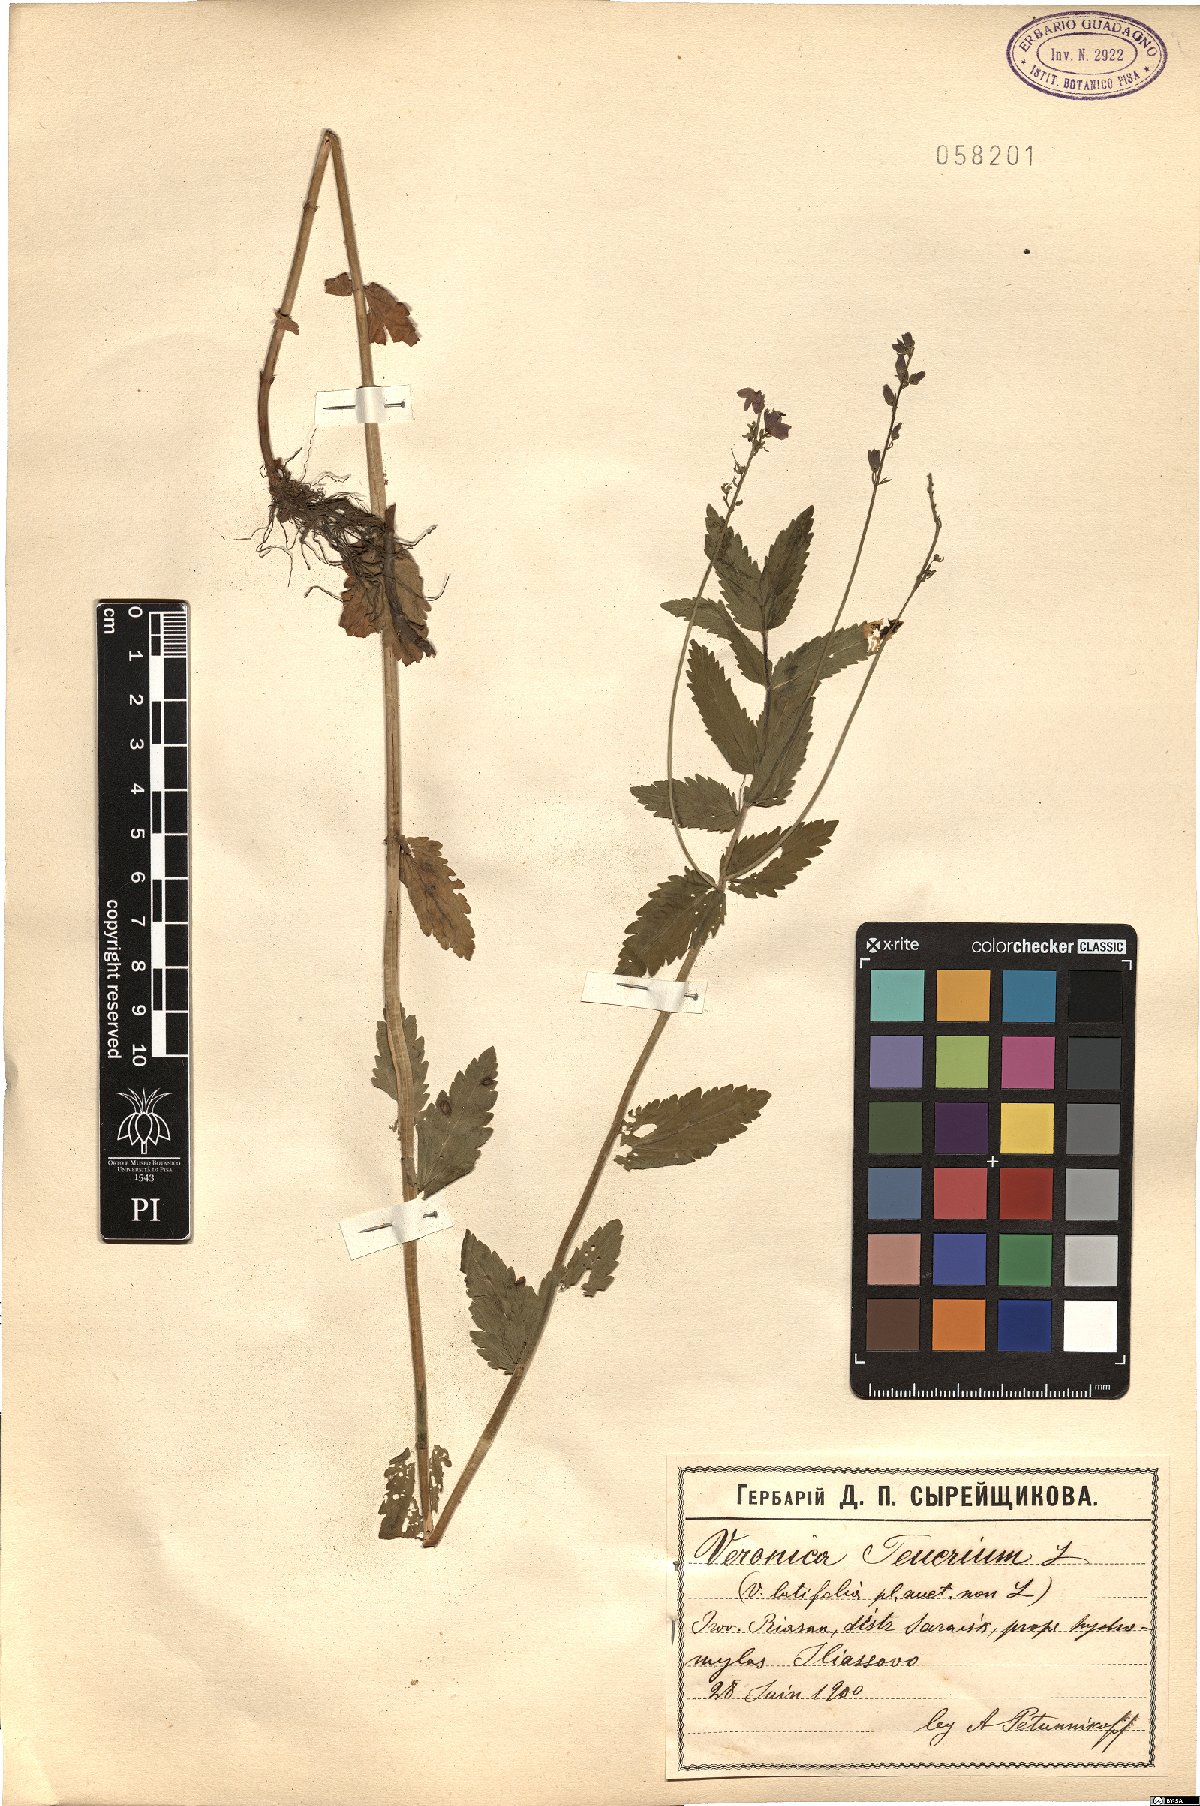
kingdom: Plantae
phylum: Tracheophyta
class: Magnoliopsida
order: Lamiales
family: Plantaginaceae
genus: Veronica
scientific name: Veronica teucrium
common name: Large speedwell
